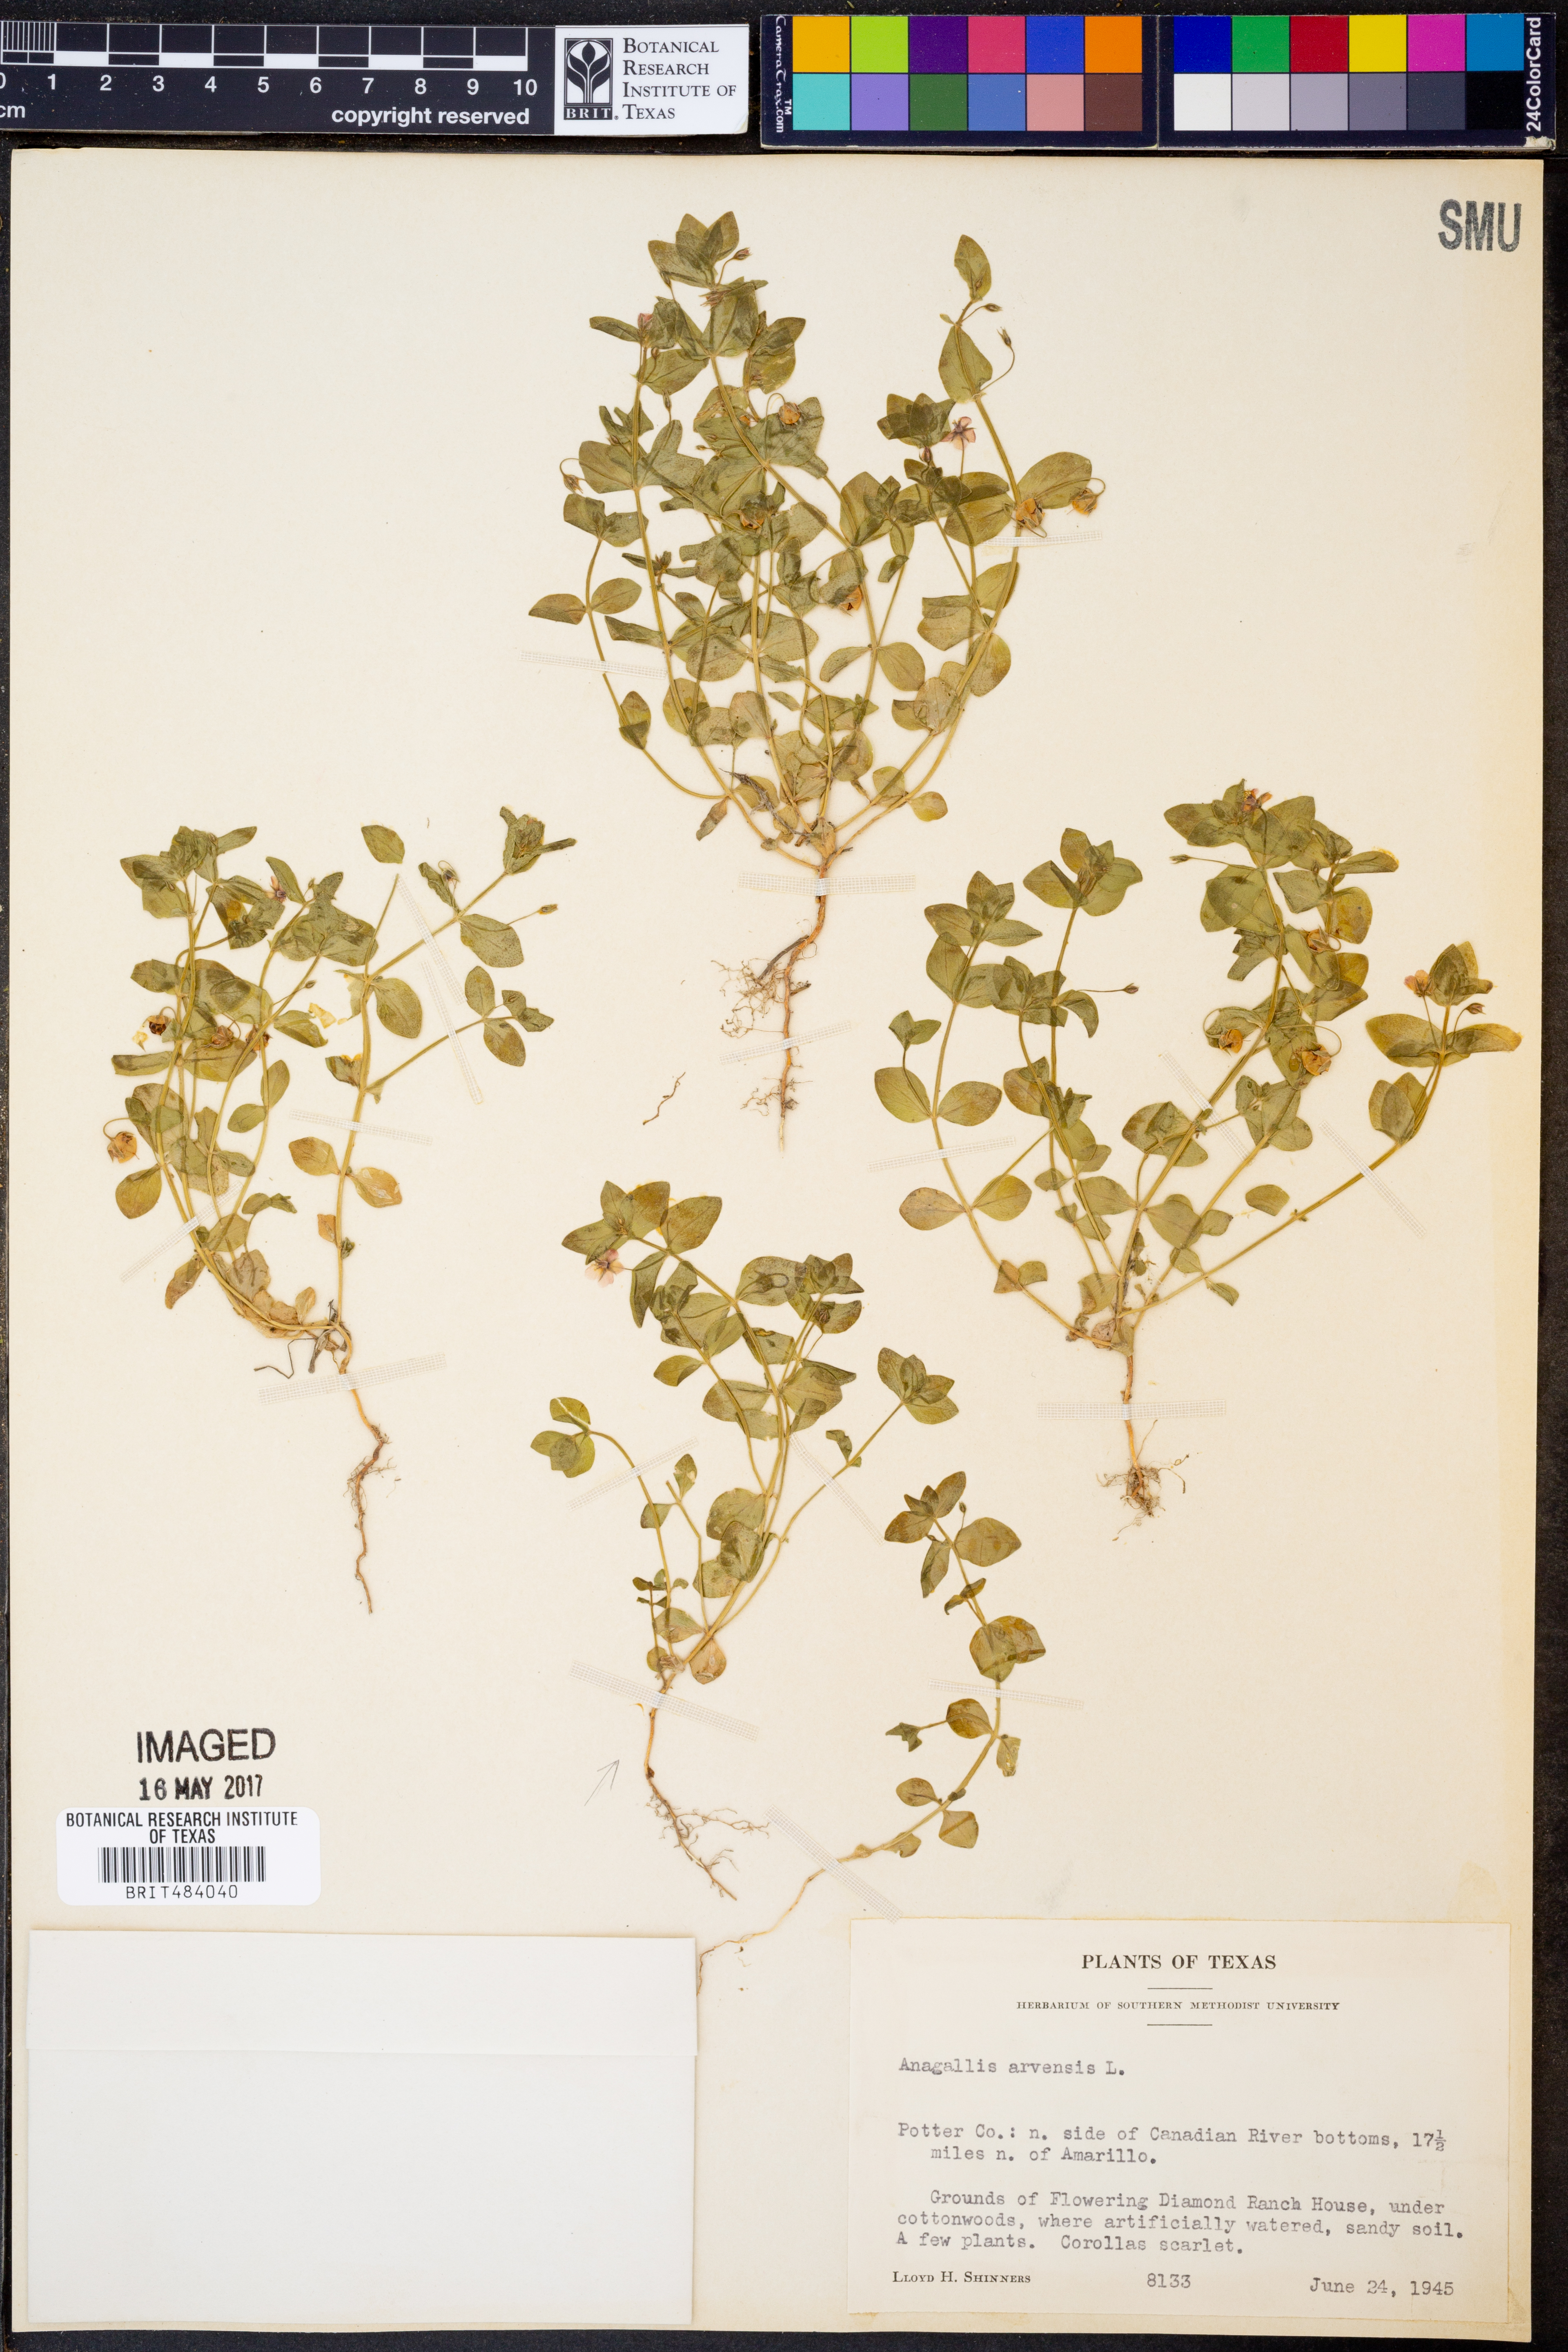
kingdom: Plantae
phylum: Tracheophyta
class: Magnoliopsida
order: Ericales
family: Primulaceae
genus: Lysimachia
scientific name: Lysimachia arvensis
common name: Scarlet pimpernel
